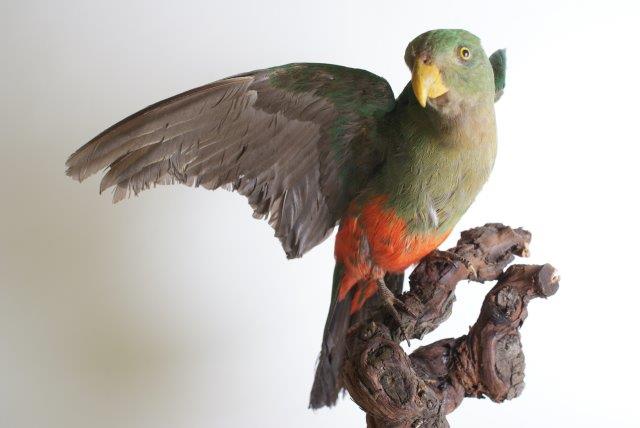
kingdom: Animalia
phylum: Chordata
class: Aves
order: Psittaciformes
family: Psittacidae
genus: Alisterus
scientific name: Alisterus chloropterus
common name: Papuan king parrot
